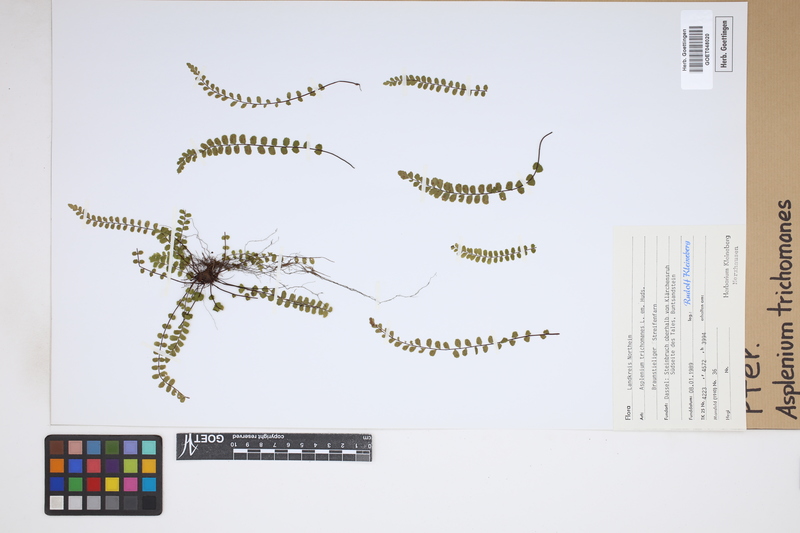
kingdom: Plantae
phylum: Tracheophyta
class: Polypodiopsida
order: Polypodiales
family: Aspleniaceae
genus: Asplenium
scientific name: Asplenium trichomanes
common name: Maidenhair spleenwort
